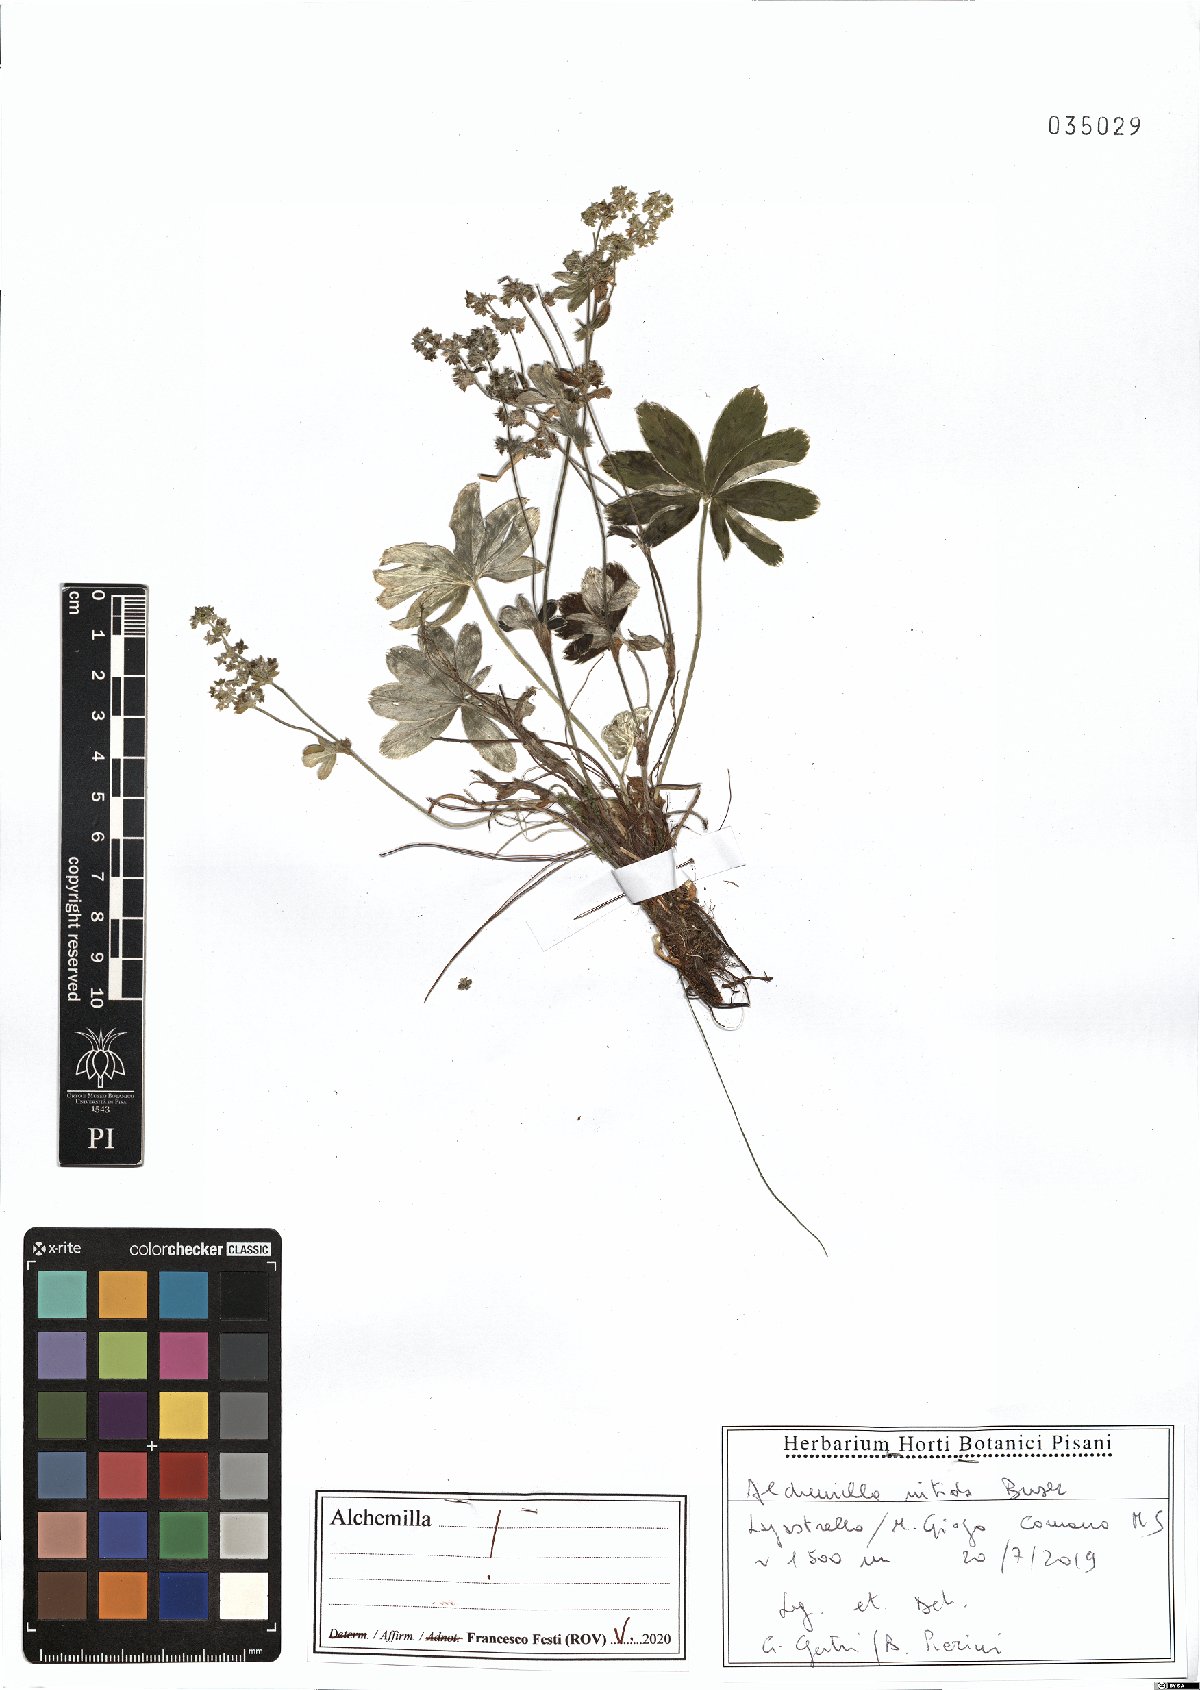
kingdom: Plantae
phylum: Tracheophyta
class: Magnoliopsida
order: Rosales
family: Rosaceae
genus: Alchemilla
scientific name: Alchemilla nitida
